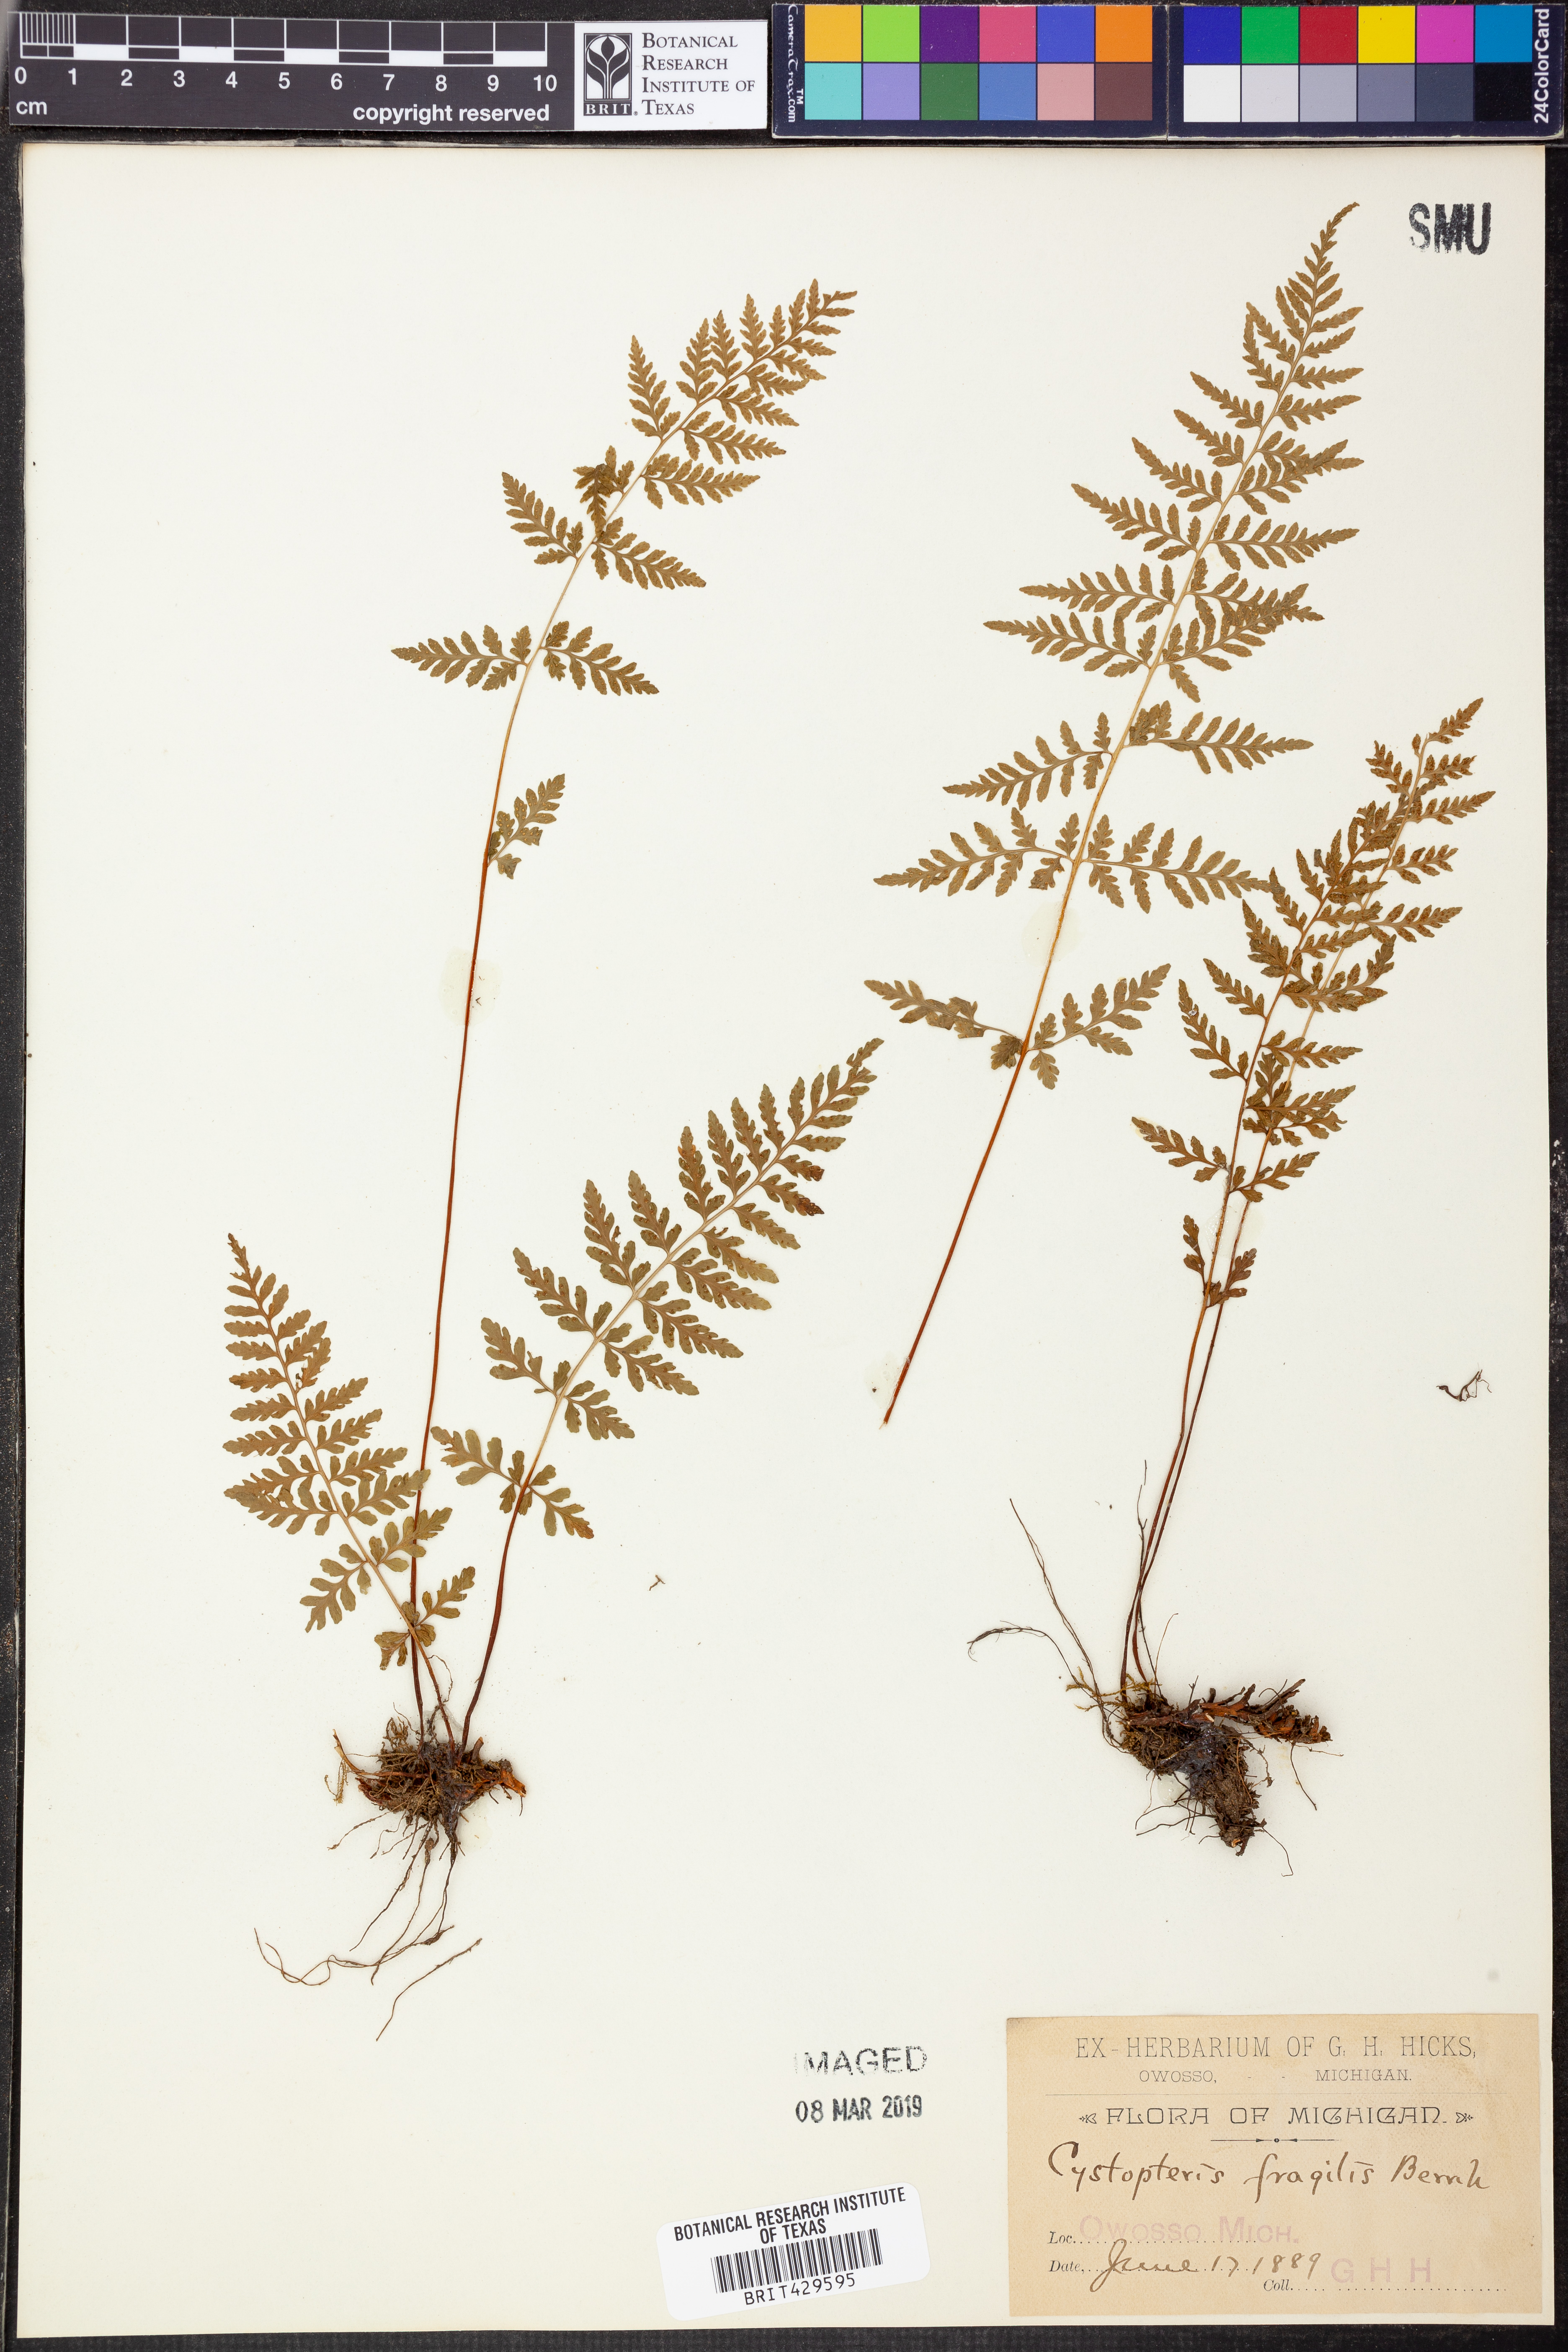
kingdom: Plantae
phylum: Tracheophyta
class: Polypodiopsida
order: Polypodiales
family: Cystopteridaceae
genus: Cystopteris
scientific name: Cystopteris fragilis
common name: Brittle bladder fern
